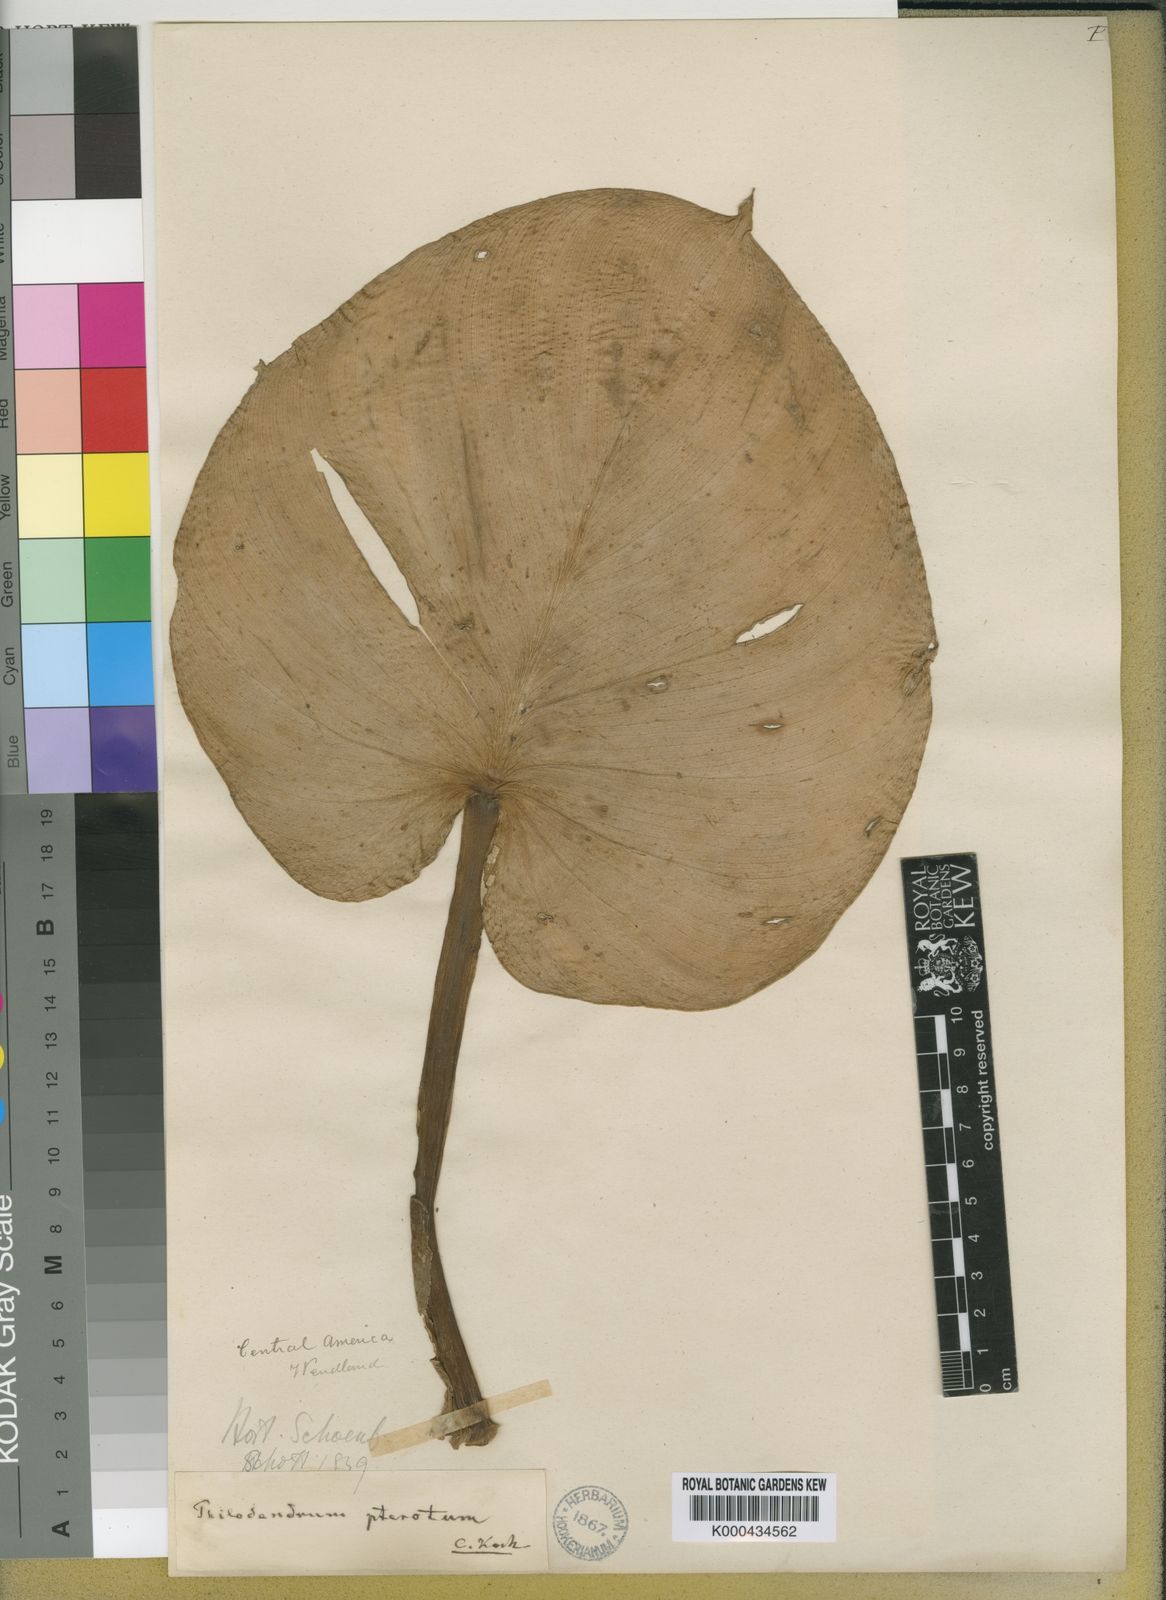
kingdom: Plantae
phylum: Tracheophyta
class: Liliopsida
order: Alismatales
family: Araceae
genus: Philodendron
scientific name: Philodendron pterotum
